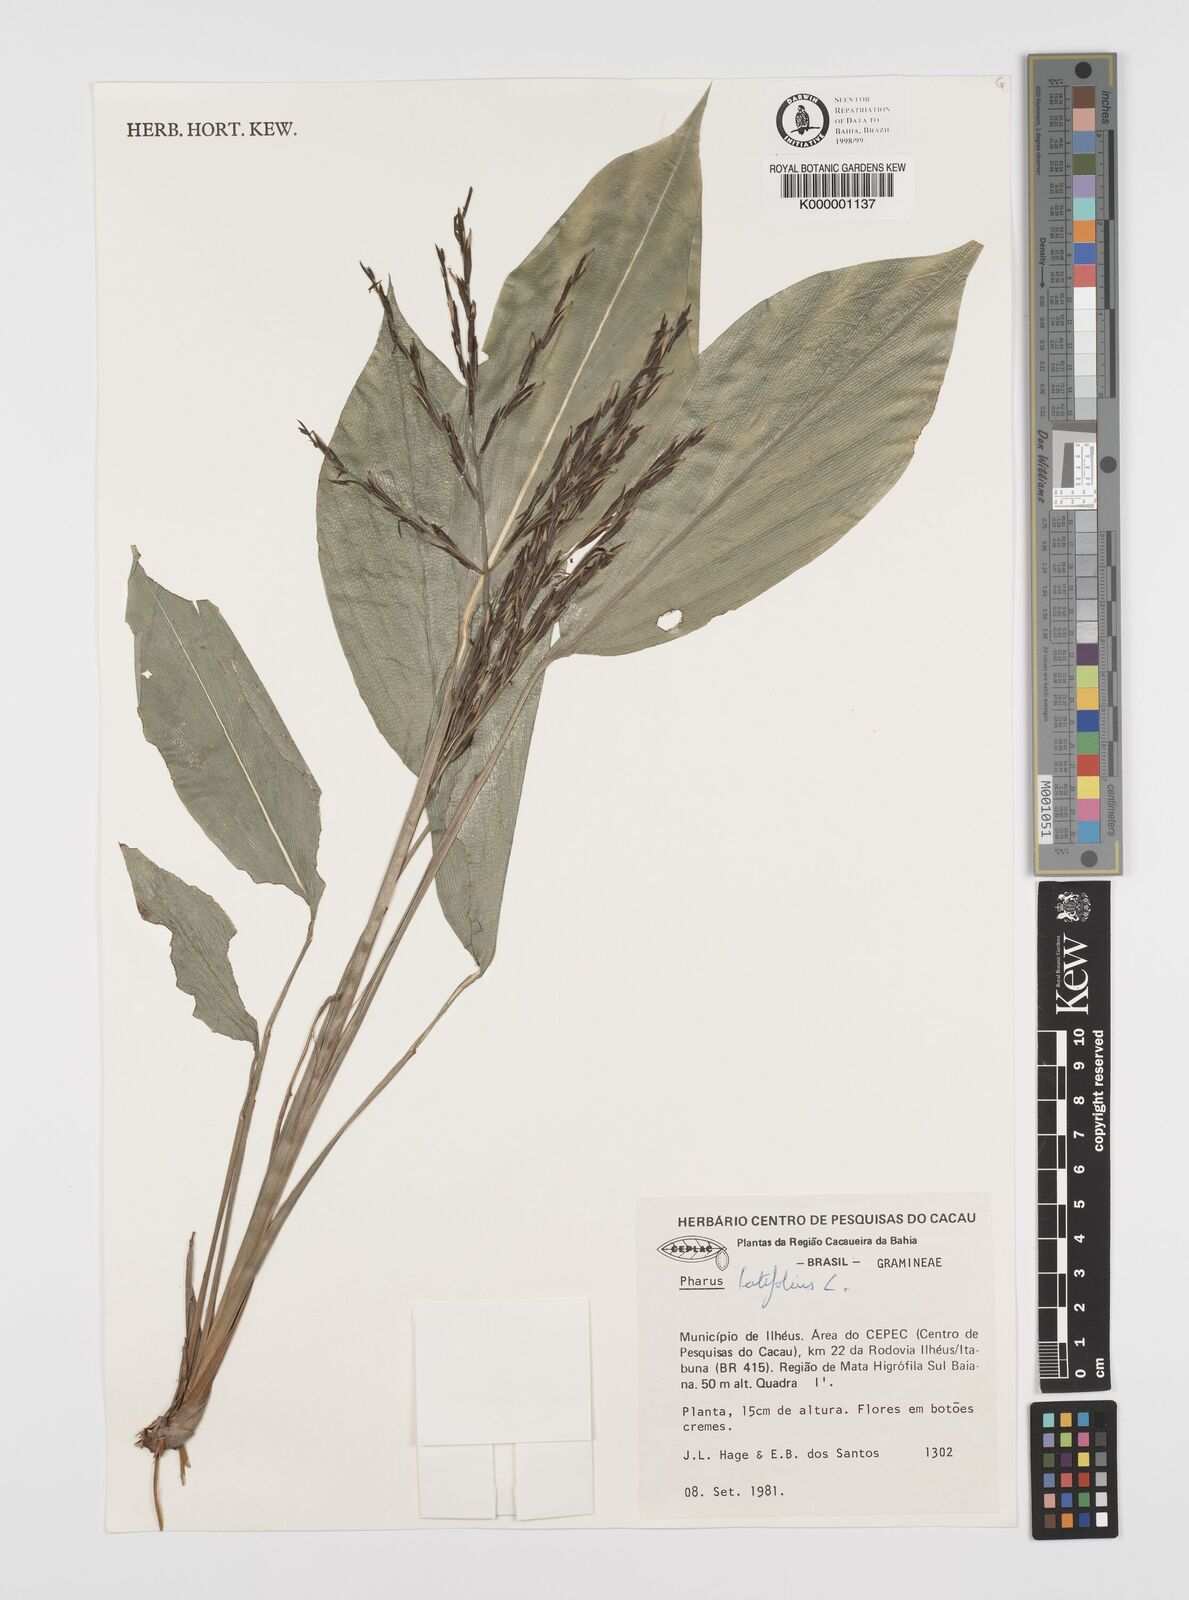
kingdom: Plantae
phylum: Tracheophyta
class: Liliopsida
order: Poales
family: Poaceae
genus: Pharus
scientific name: Pharus latifolius
